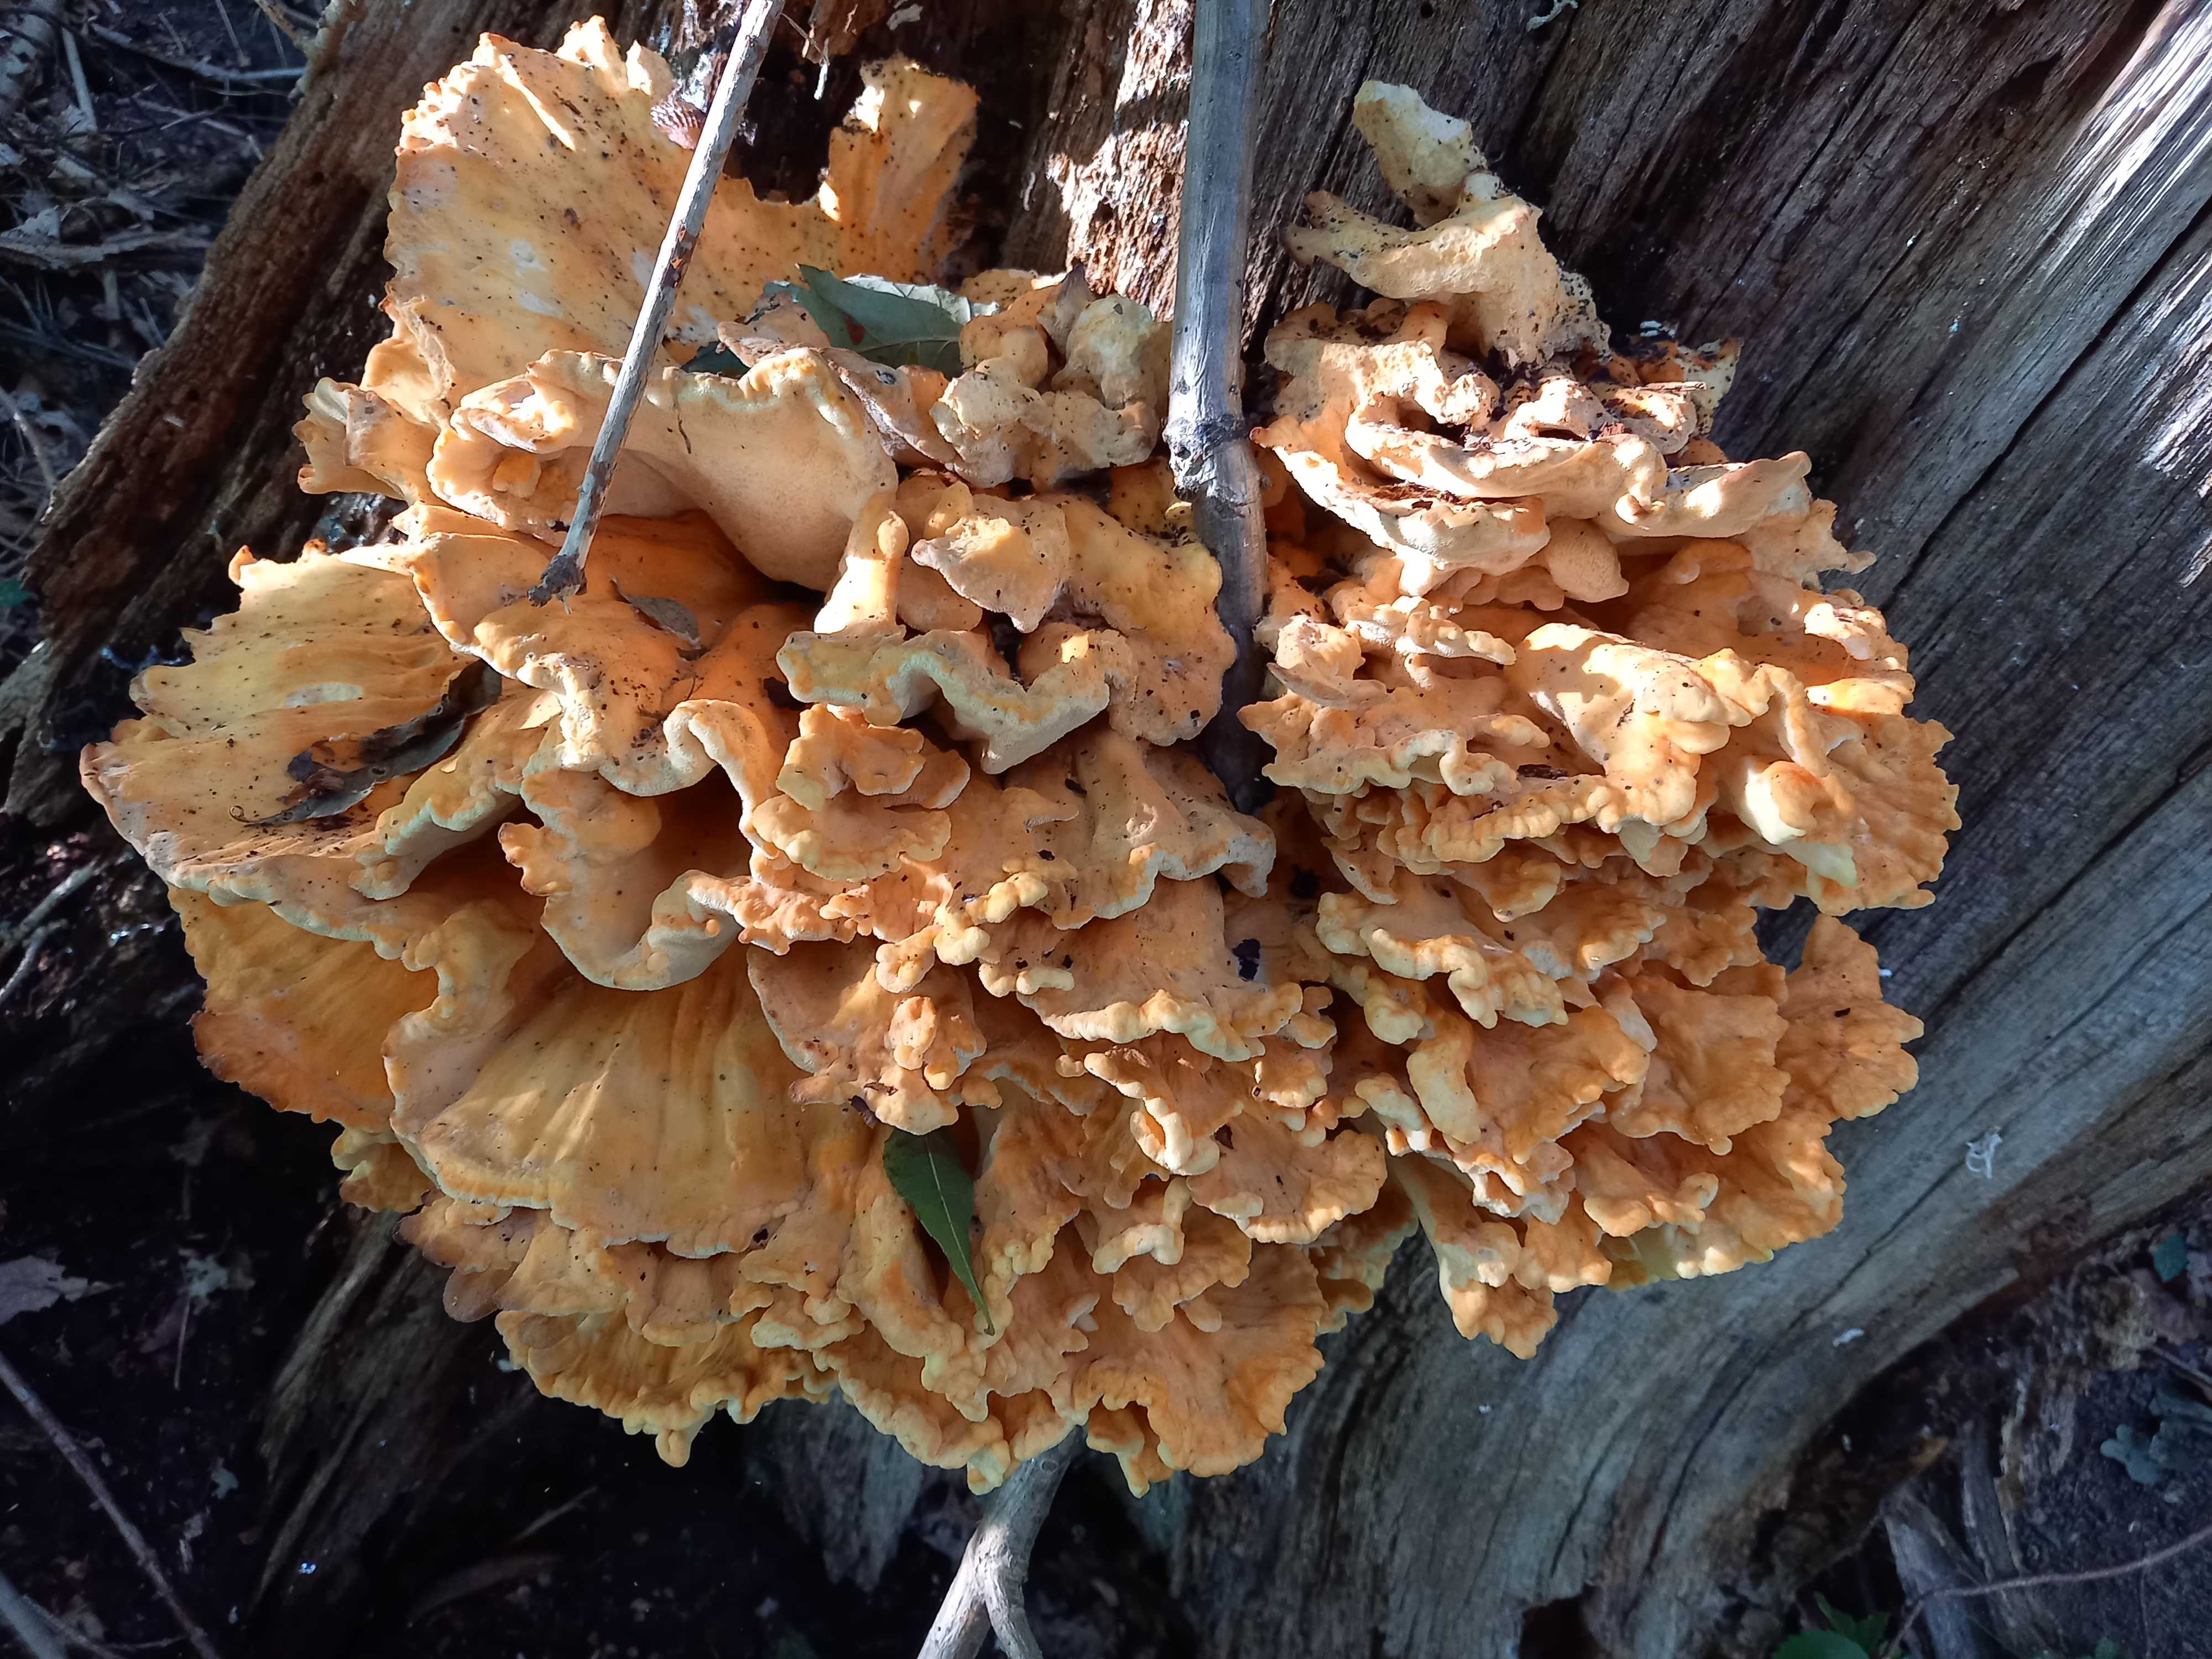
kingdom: Fungi
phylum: Basidiomycota
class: Agaricomycetes
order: Polyporales
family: Laetiporaceae
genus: Laetiporus
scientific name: Laetiporus sulphureus
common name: svovlporesvamp
